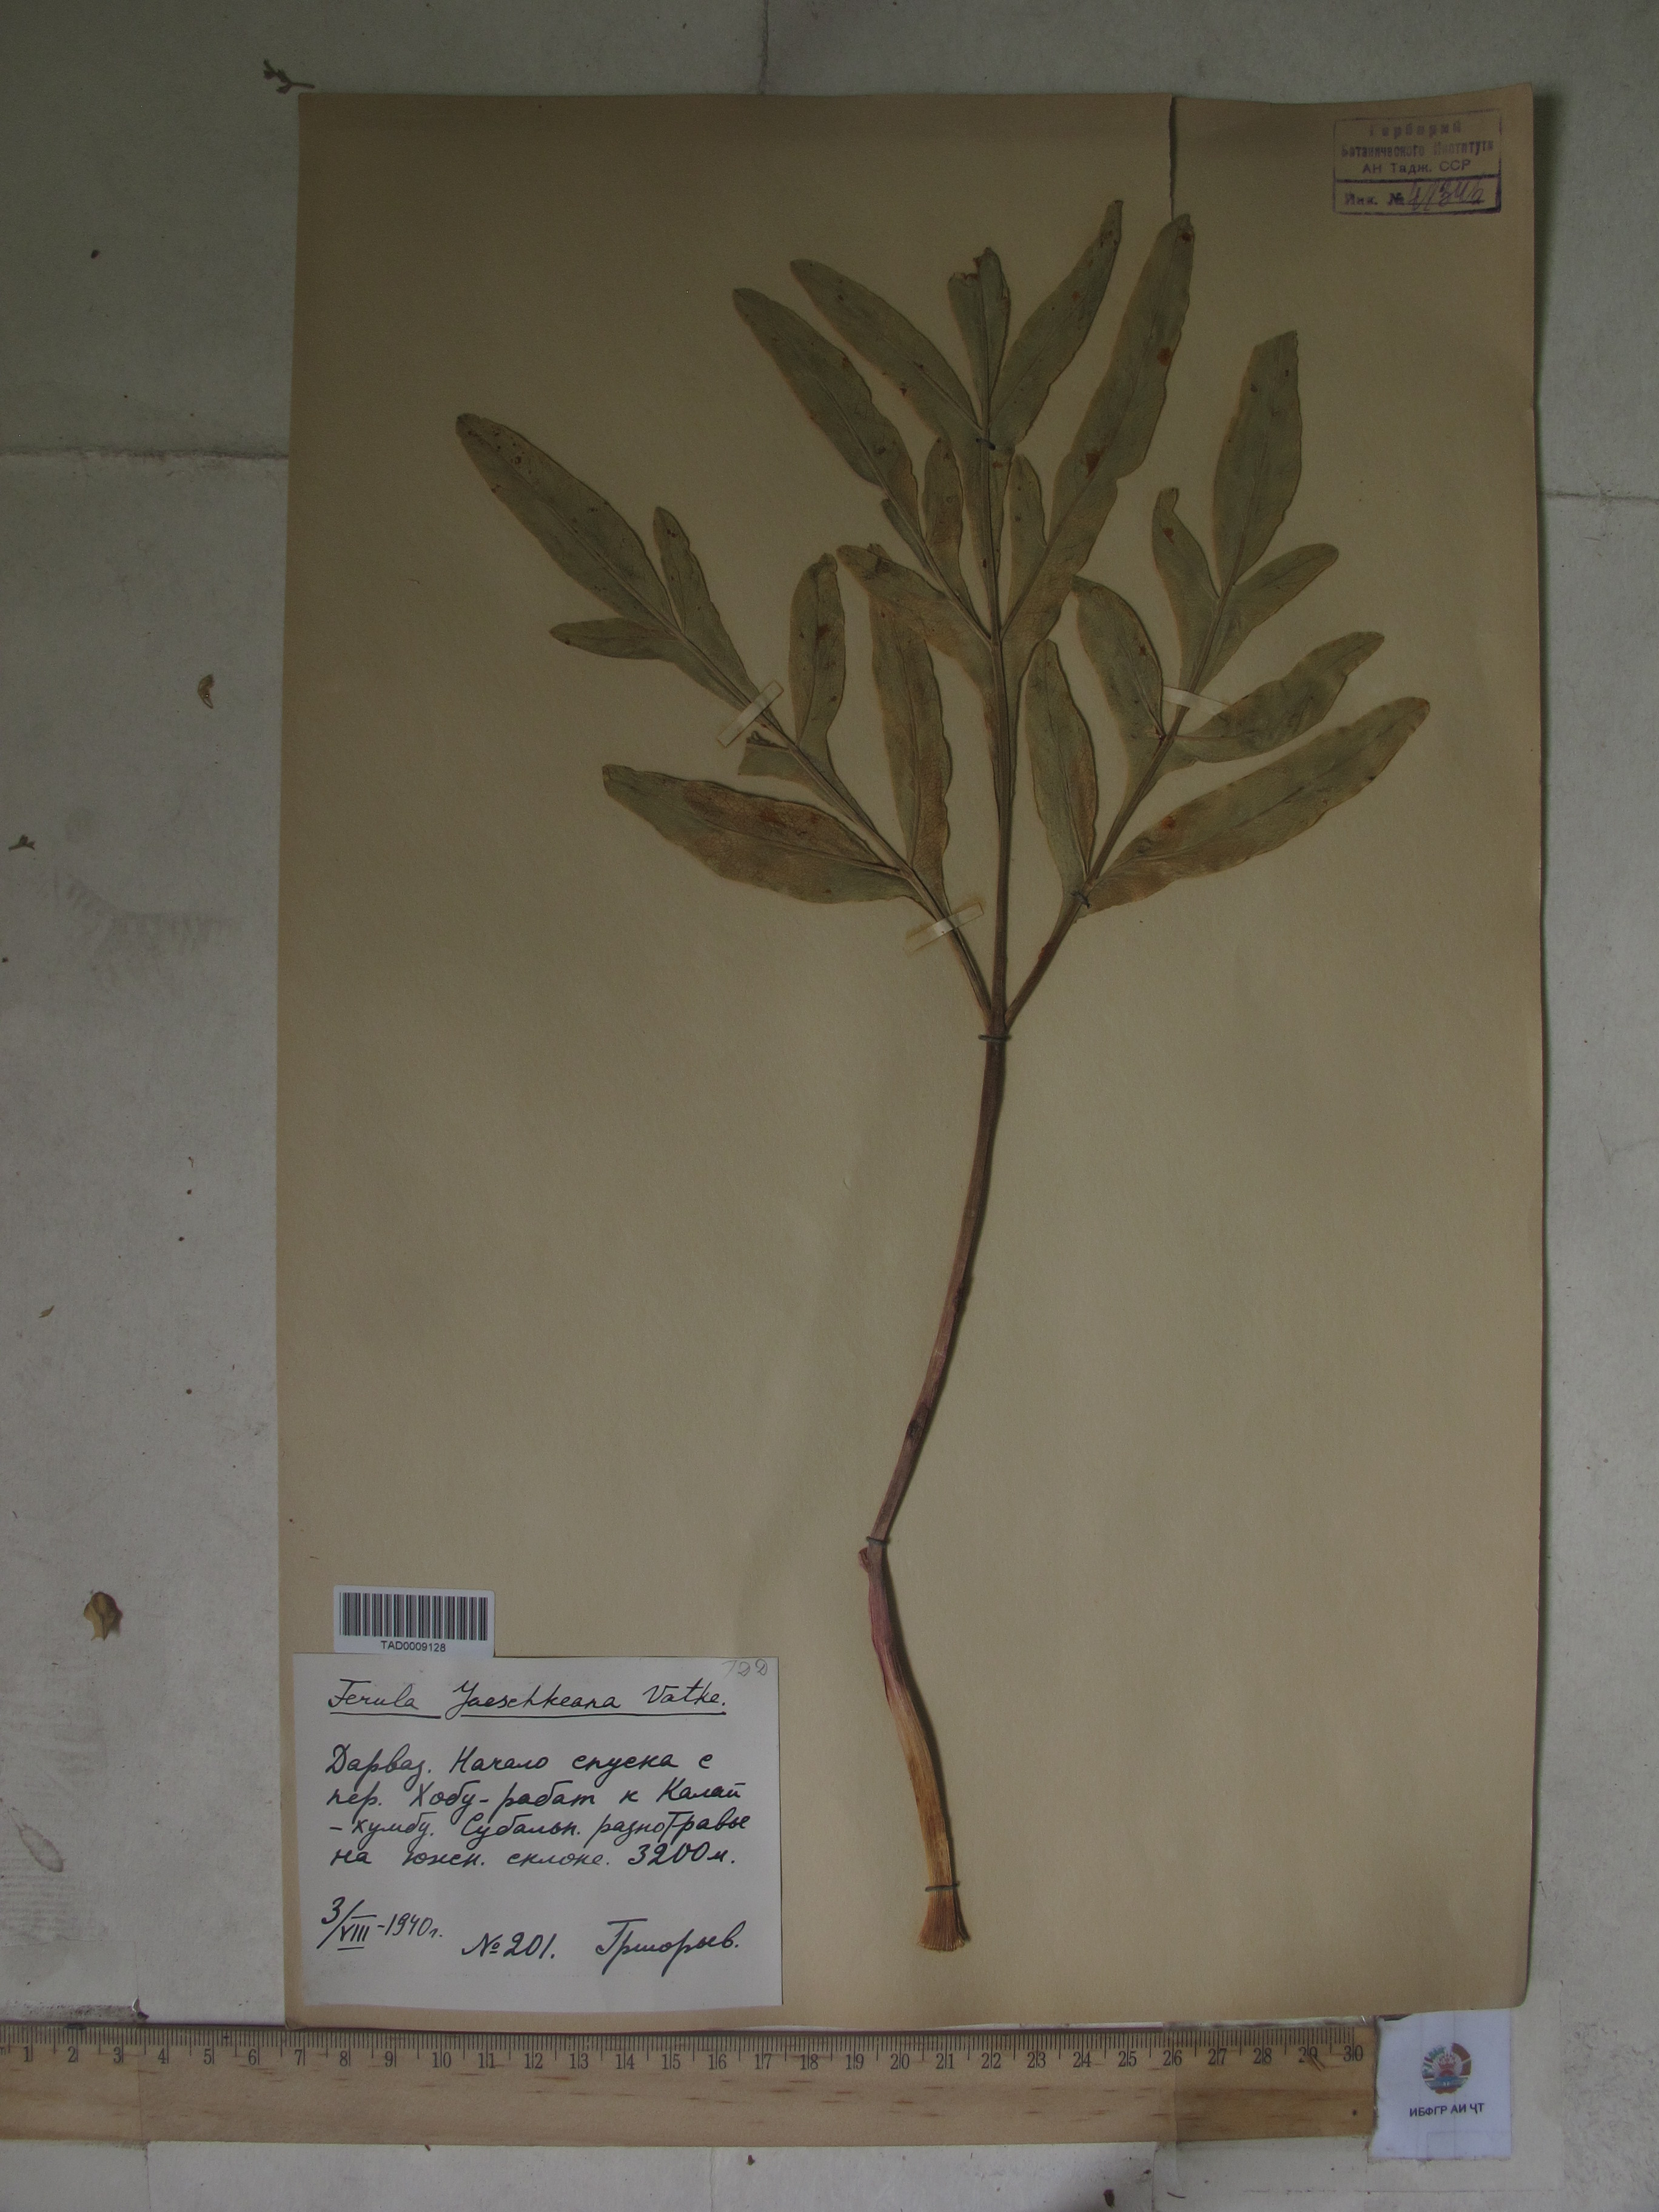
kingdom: Plantae
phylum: Tracheophyta
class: Magnoliopsida
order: Apiales
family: Apiaceae
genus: Ferula
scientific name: Ferula jaeschkeana
